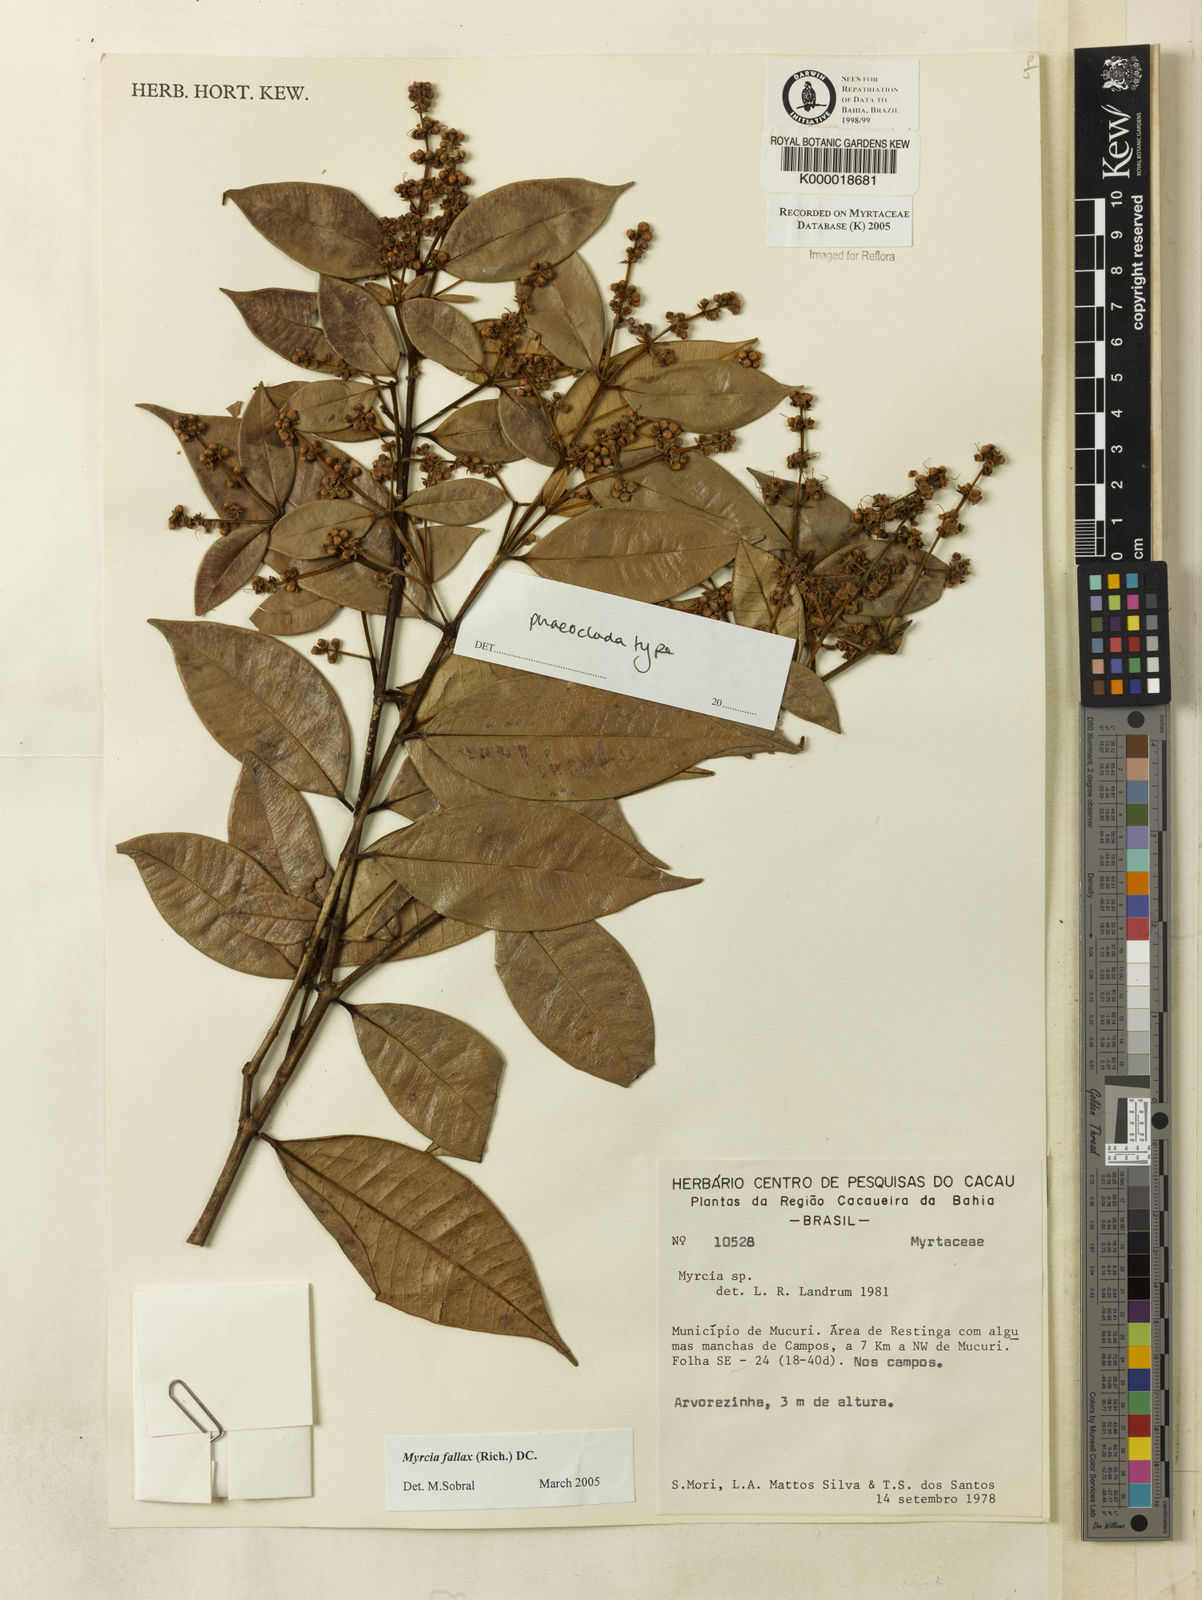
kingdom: Plantae
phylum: Tracheophyta
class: Magnoliopsida
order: Myrtales
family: Myrtaceae
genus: Myrcia
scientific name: Myrcia
